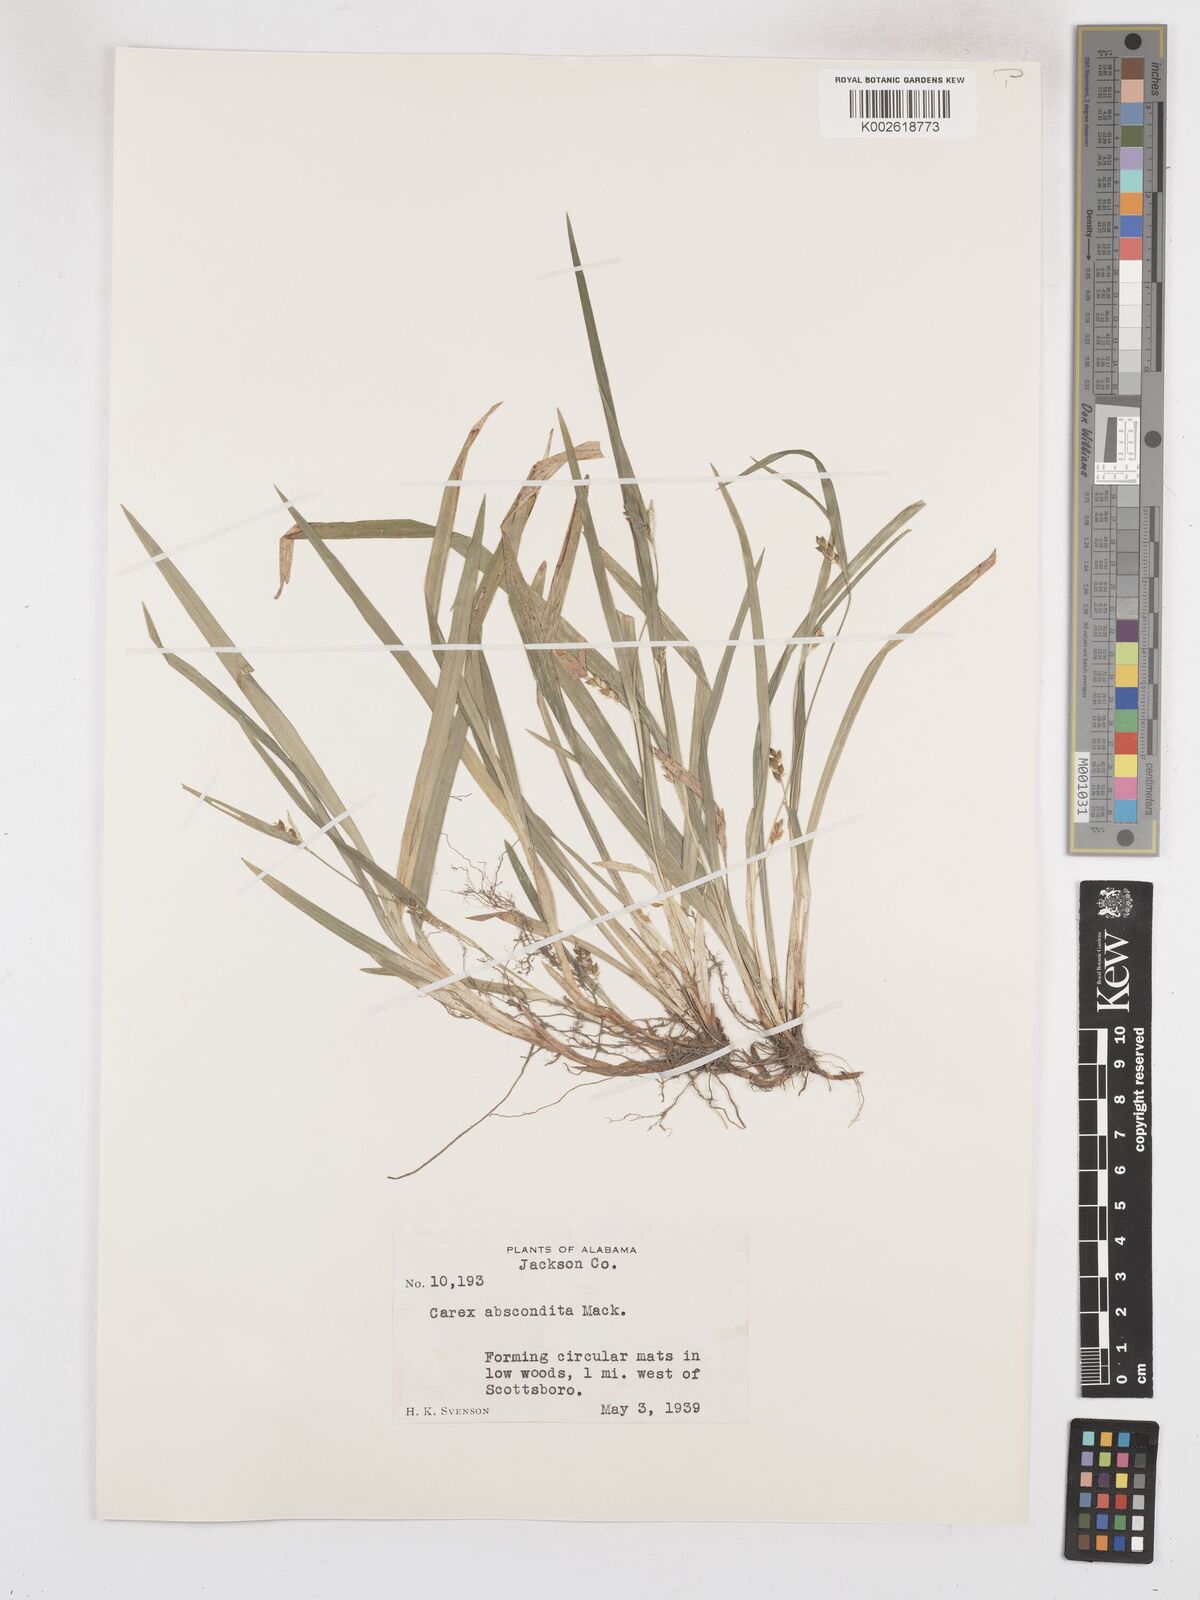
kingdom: Plantae
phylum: Tracheophyta
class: Liliopsida
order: Poales
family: Cyperaceae
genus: Carex
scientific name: Carex abscondita
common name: Thicket sedge
